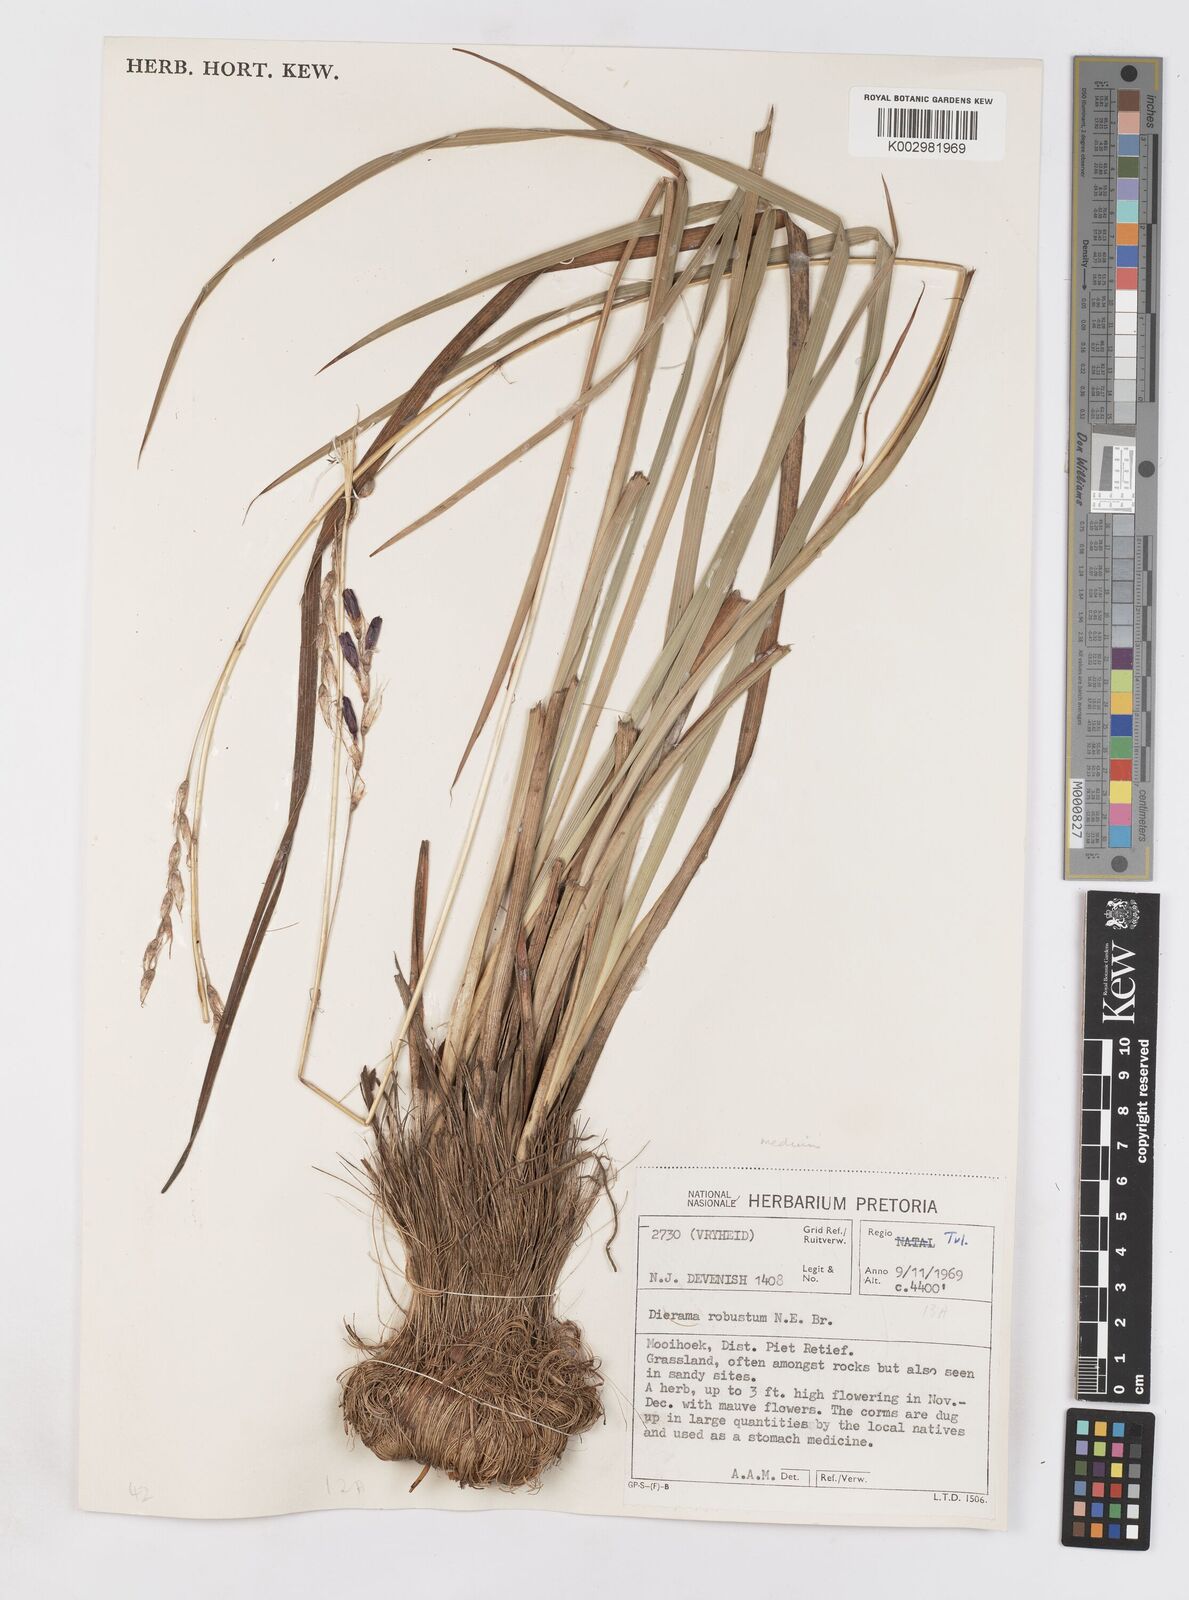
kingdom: Plantae
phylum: Tracheophyta
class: Liliopsida
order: Asparagales
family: Iridaceae
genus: Dierama
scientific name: Dierama medium
